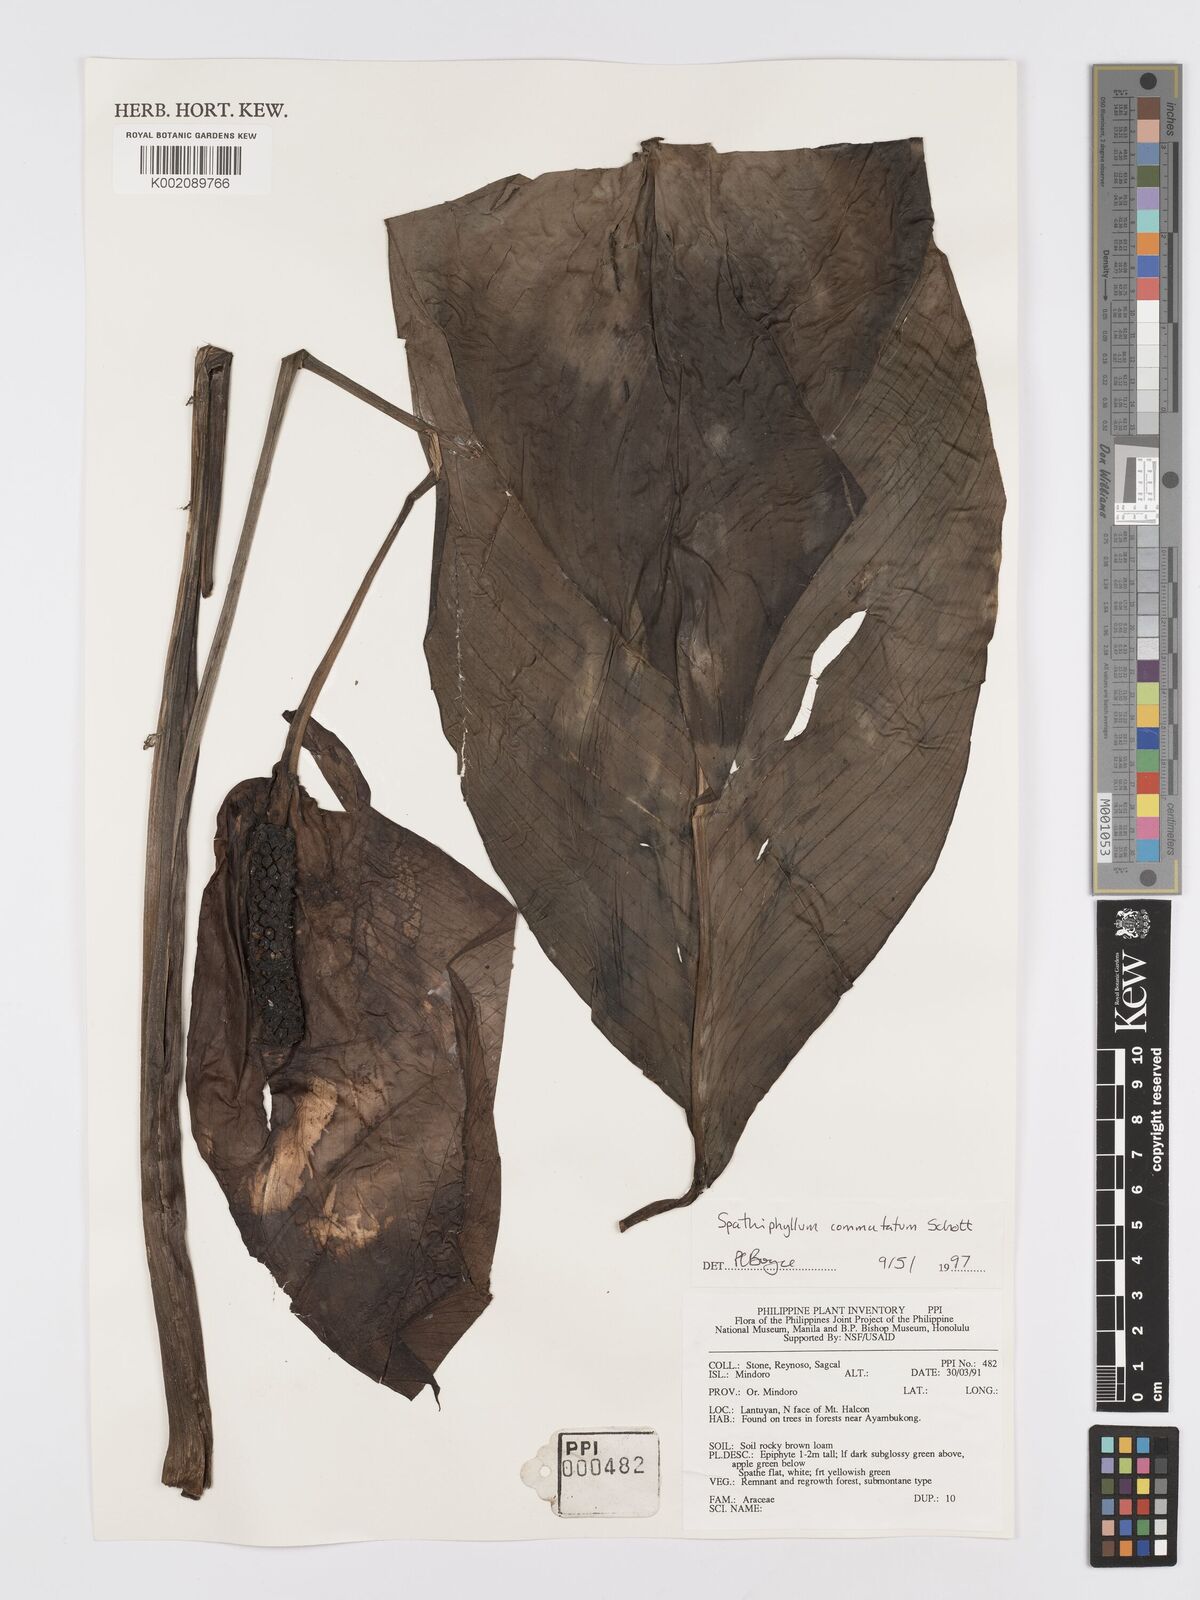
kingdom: Plantae
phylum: Tracheophyta
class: Liliopsida
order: Alismatales
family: Araceae
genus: Spathiphyllum
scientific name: Spathiphyllum commutatum
